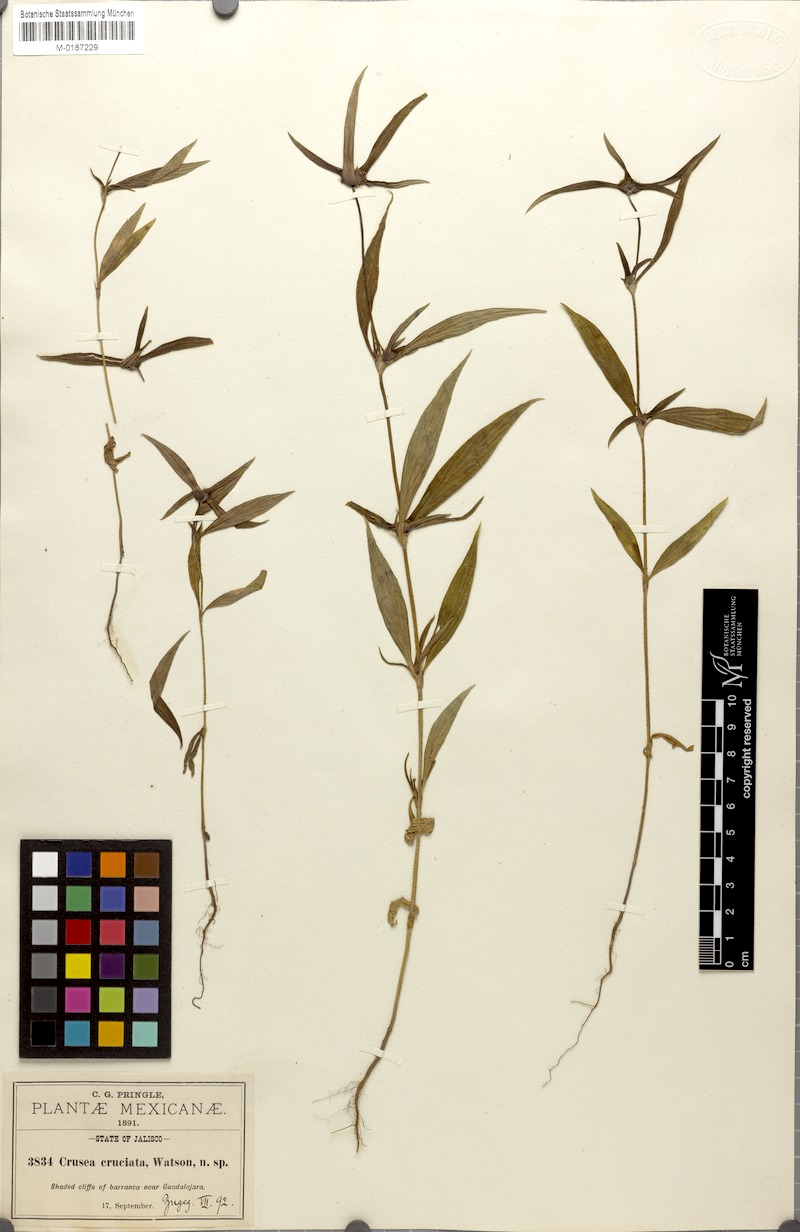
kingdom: Plantae
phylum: Tracheophyta
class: Magnoliopsida
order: Gentianales
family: Rubiaceae
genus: Crusea
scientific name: Crusea setosa
